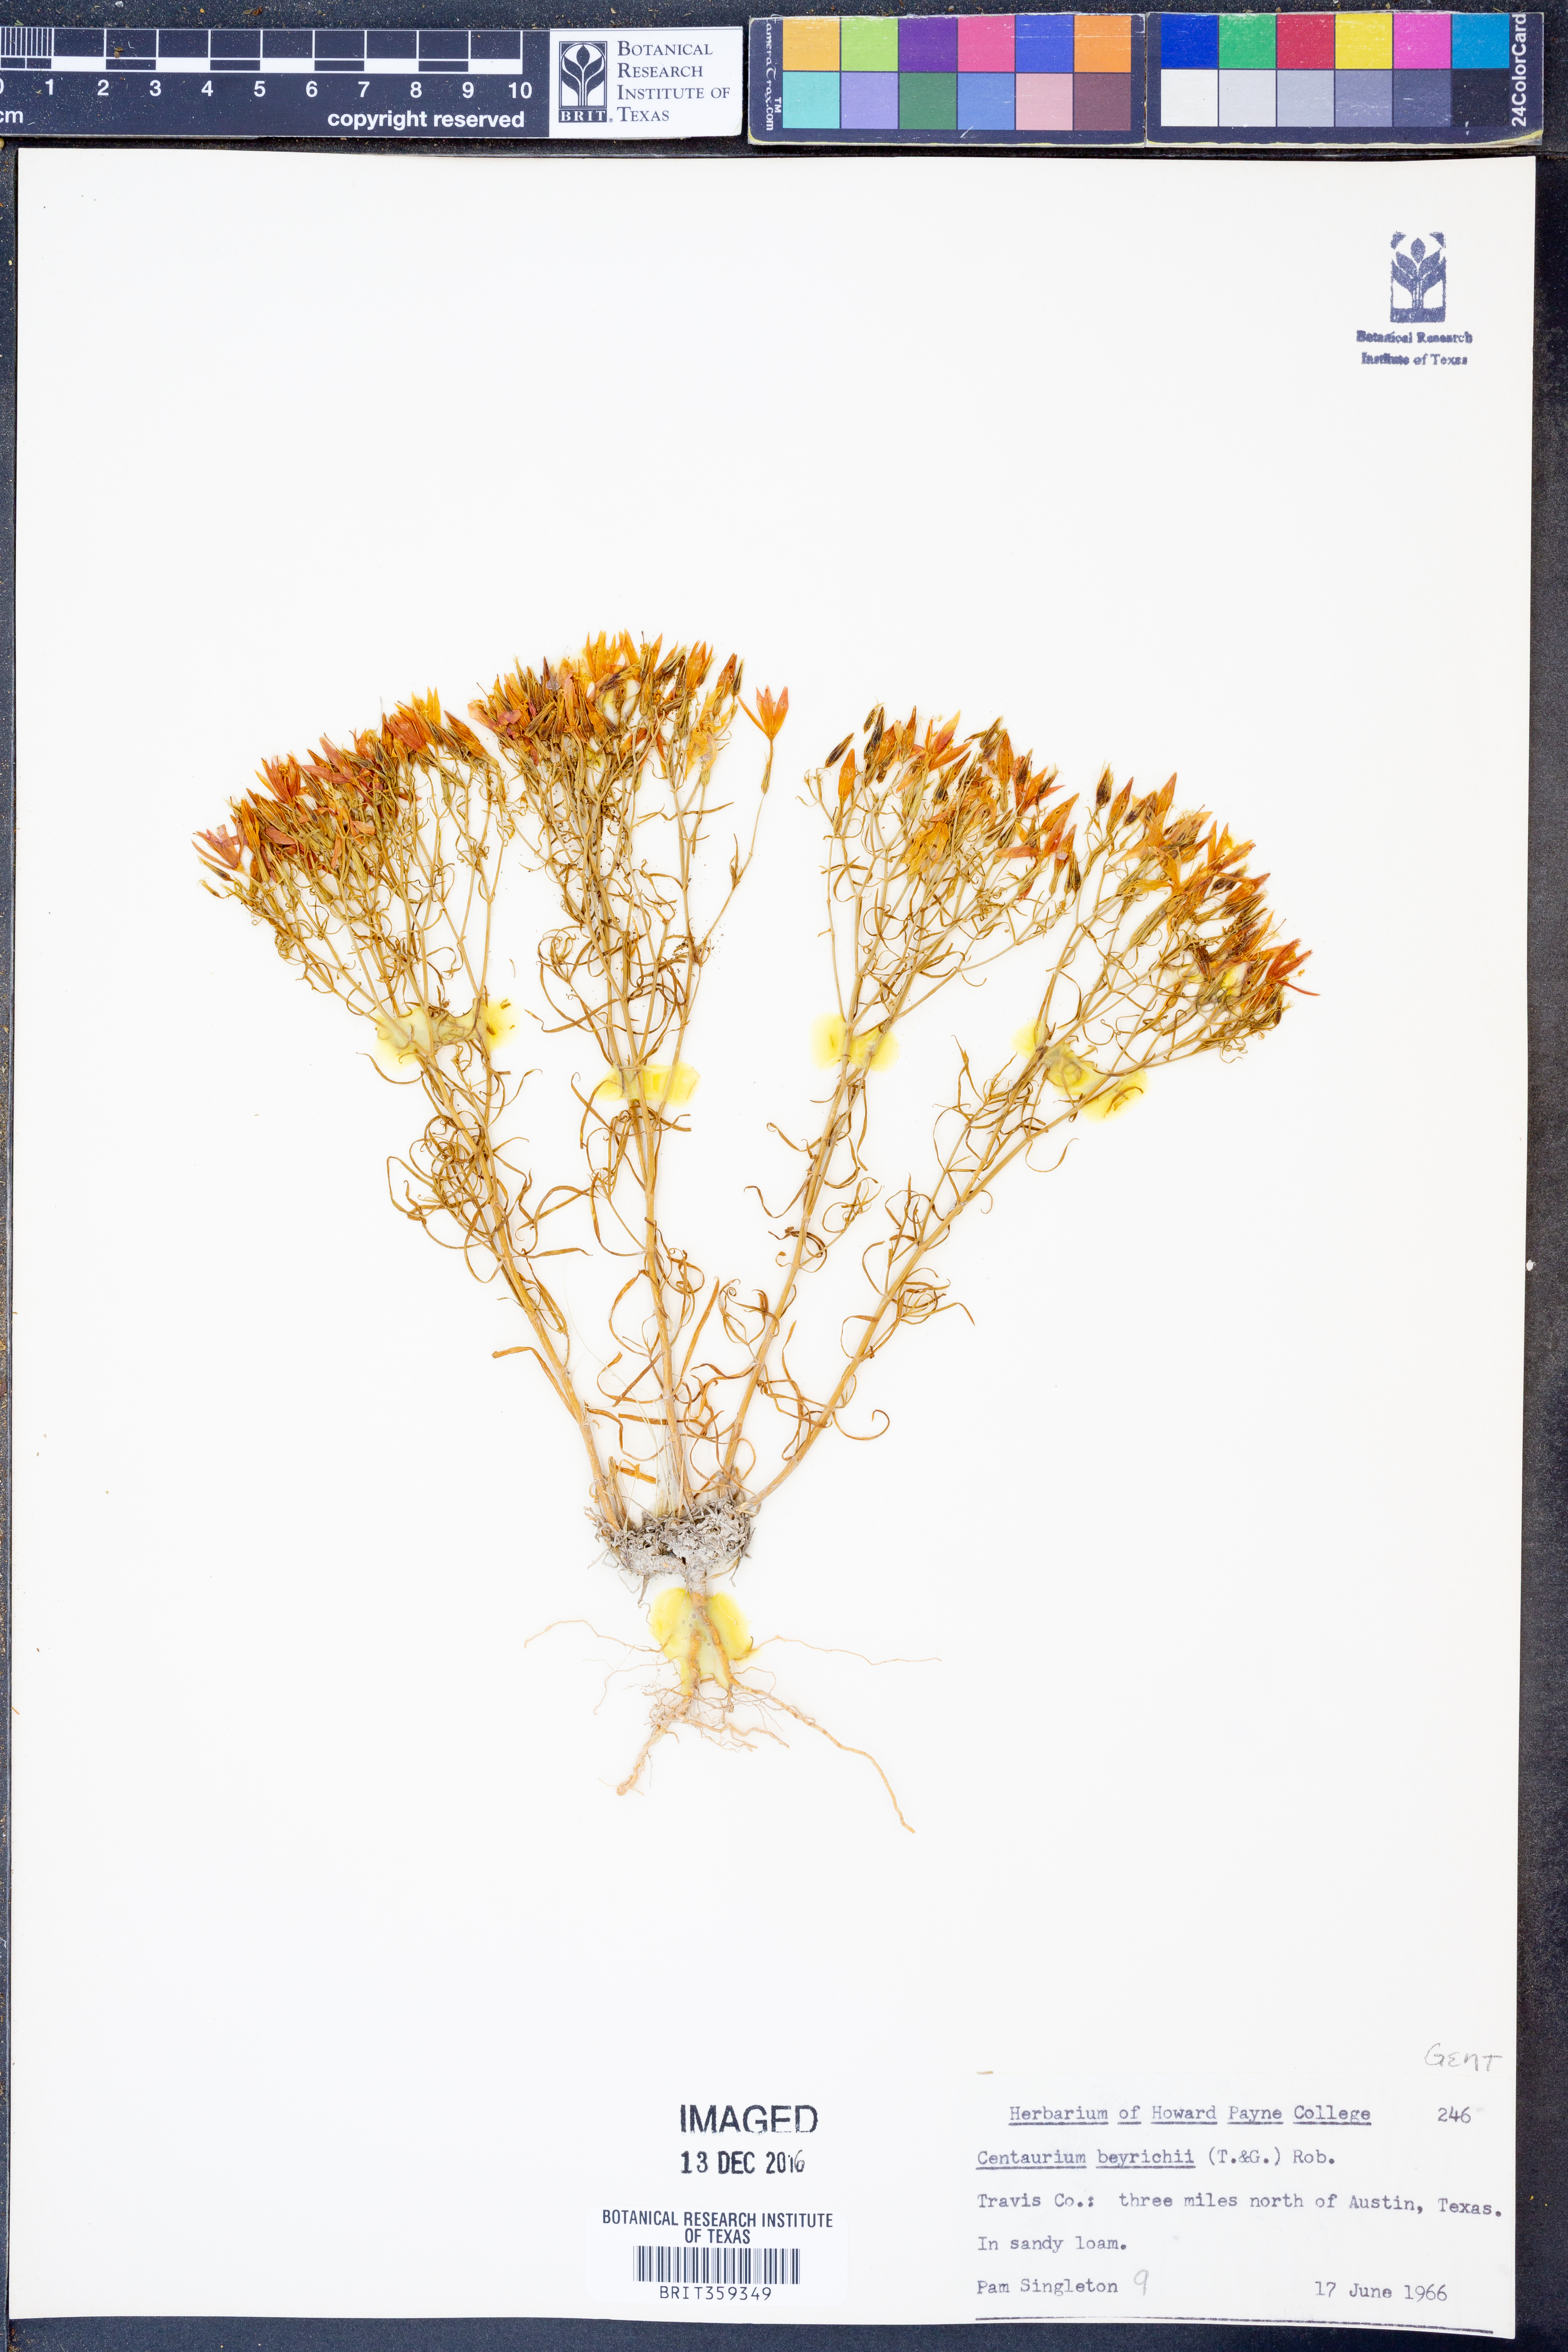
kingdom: Plantae
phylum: Tracheophyta
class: Magnoliopsida
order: Gentianales
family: Gentianaceae
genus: Zeltnera
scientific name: Zeltnera beyrichii
